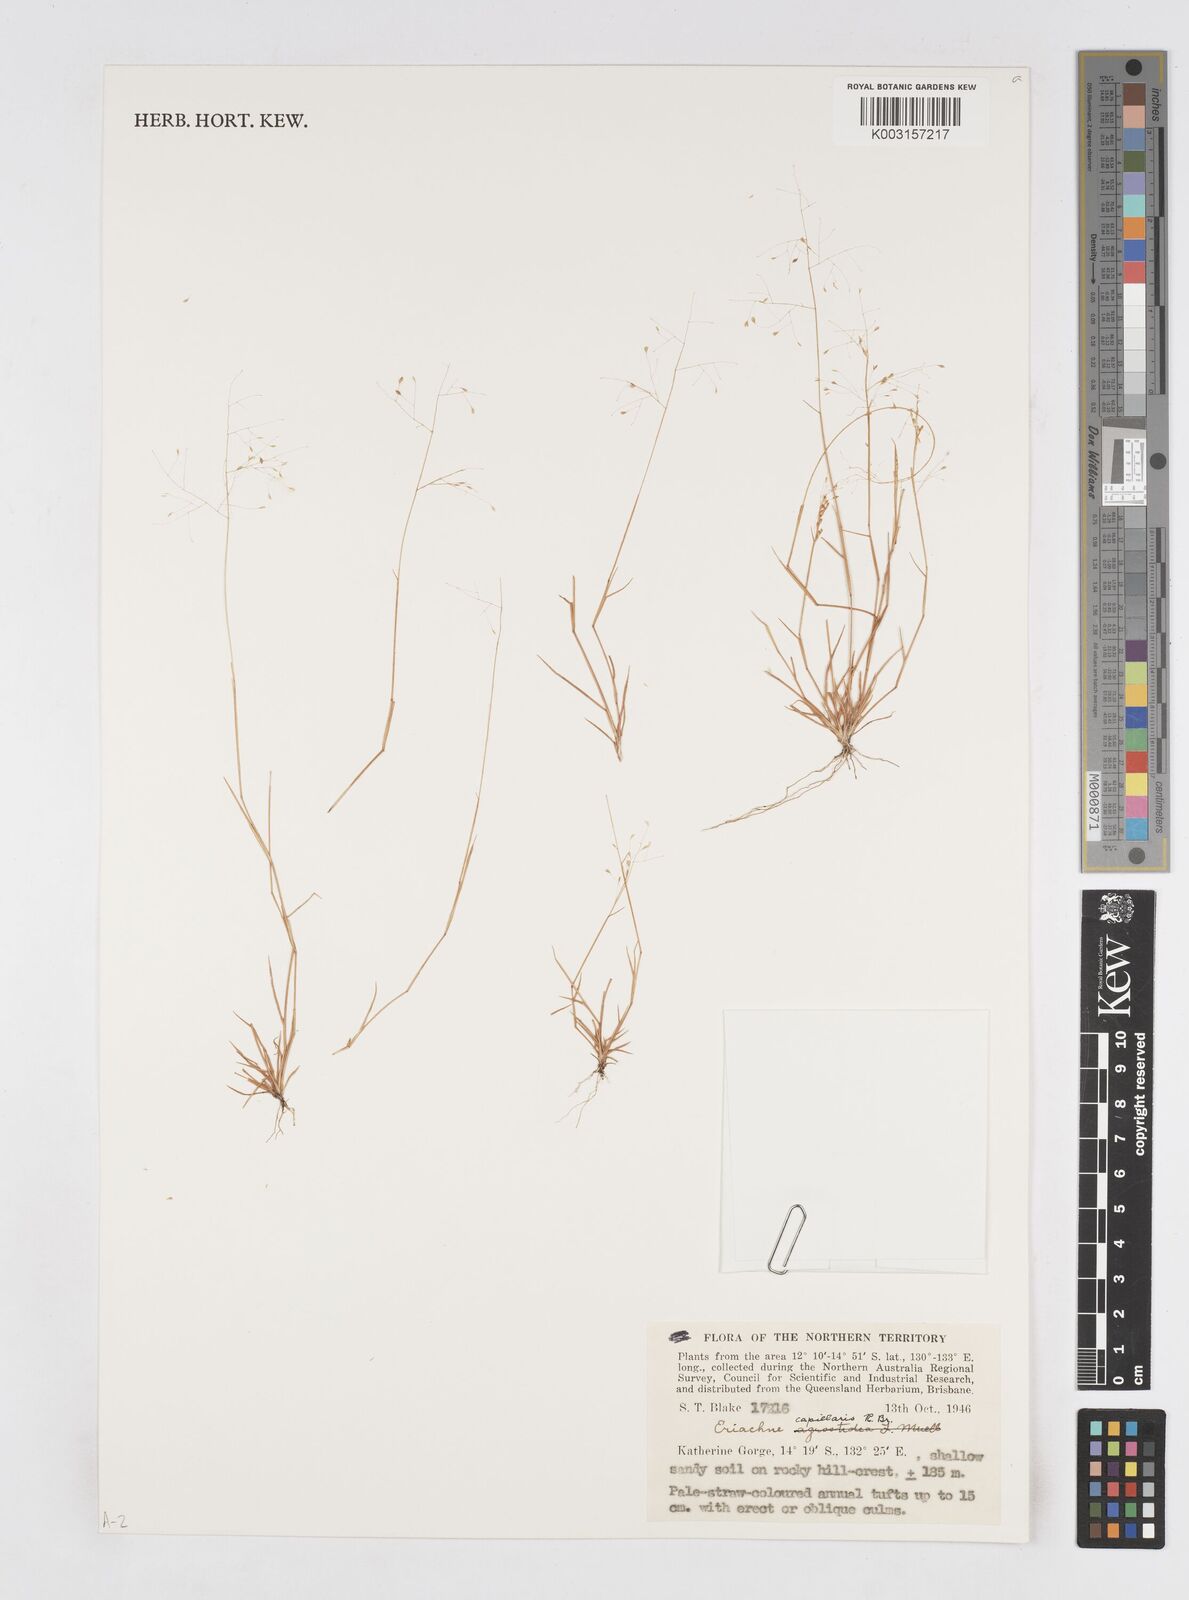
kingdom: Plantae
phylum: Tracheophyta
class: Liliopsida
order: Poales
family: Poaceae
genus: Eriachne
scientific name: Eriachne capillaris
